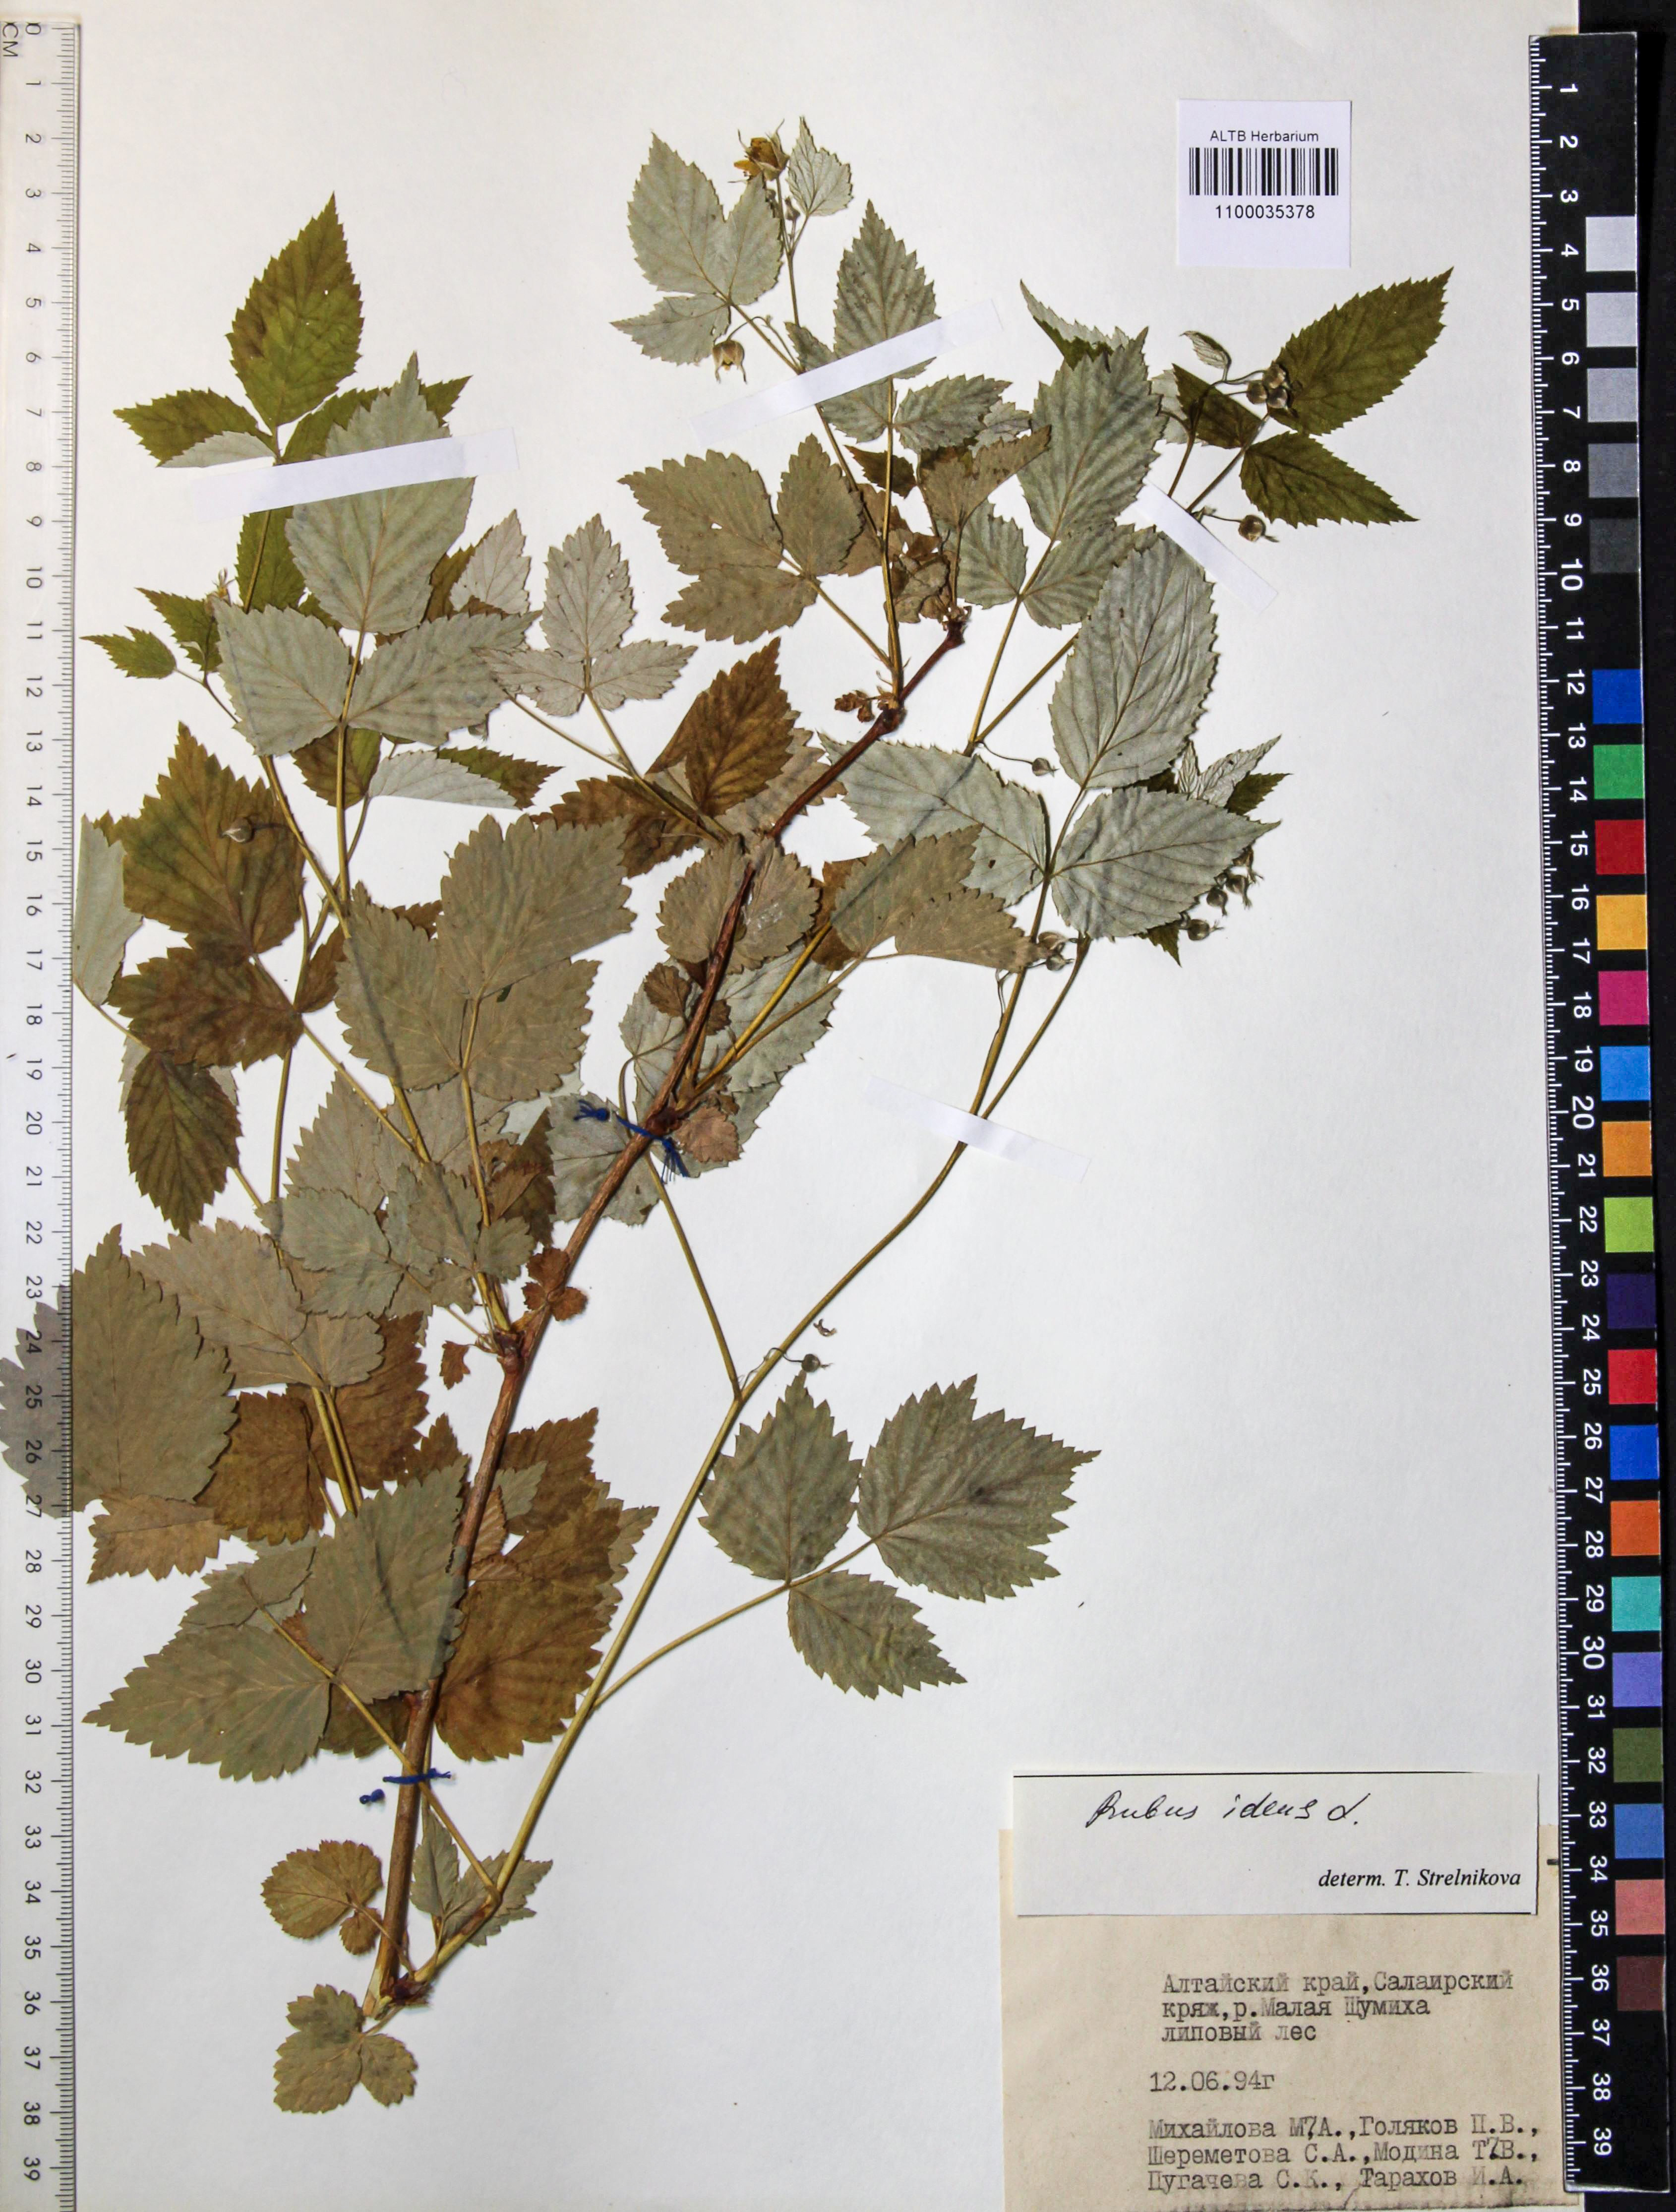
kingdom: Plantae
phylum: Tracheophyta
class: Magnoliopsida
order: Rosales
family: Rosaceae
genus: Rubus
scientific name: Rubus idaeus
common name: Raspberry
